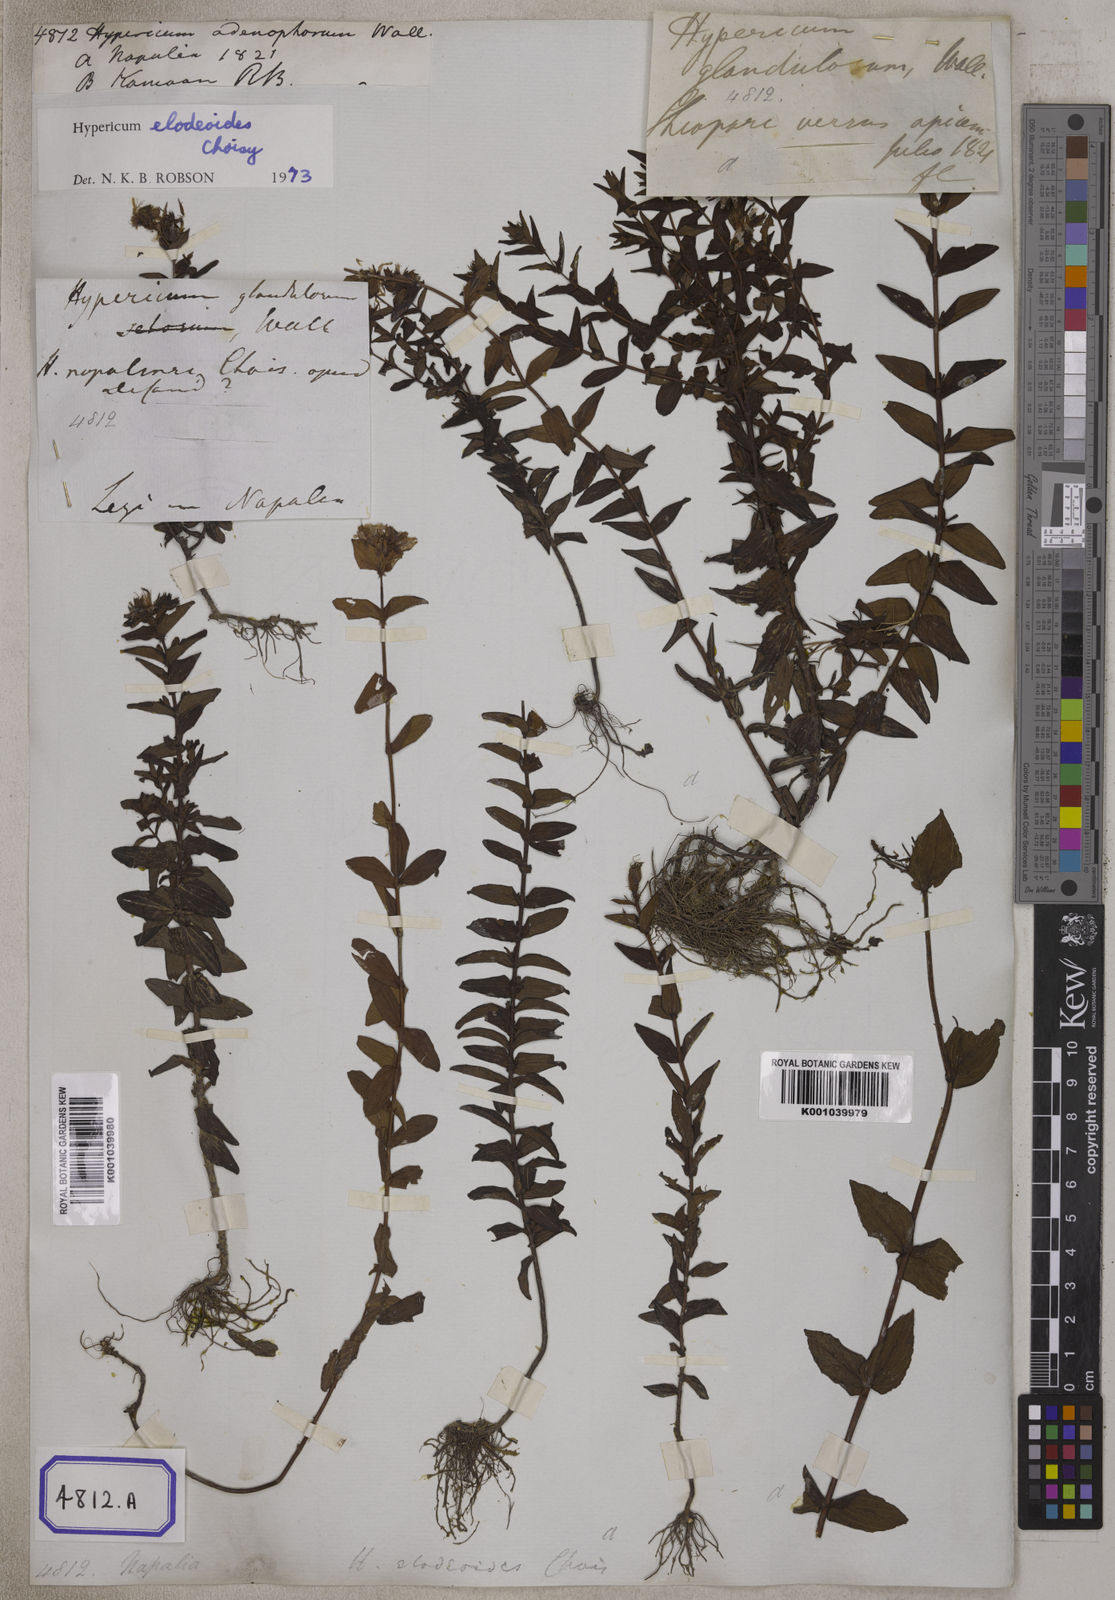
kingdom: Plantae
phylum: Tracheophyta
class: Magnoliopsida
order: Malpighiales
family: Hypericaceae
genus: Hypericum
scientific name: Hypericum elodeoides
